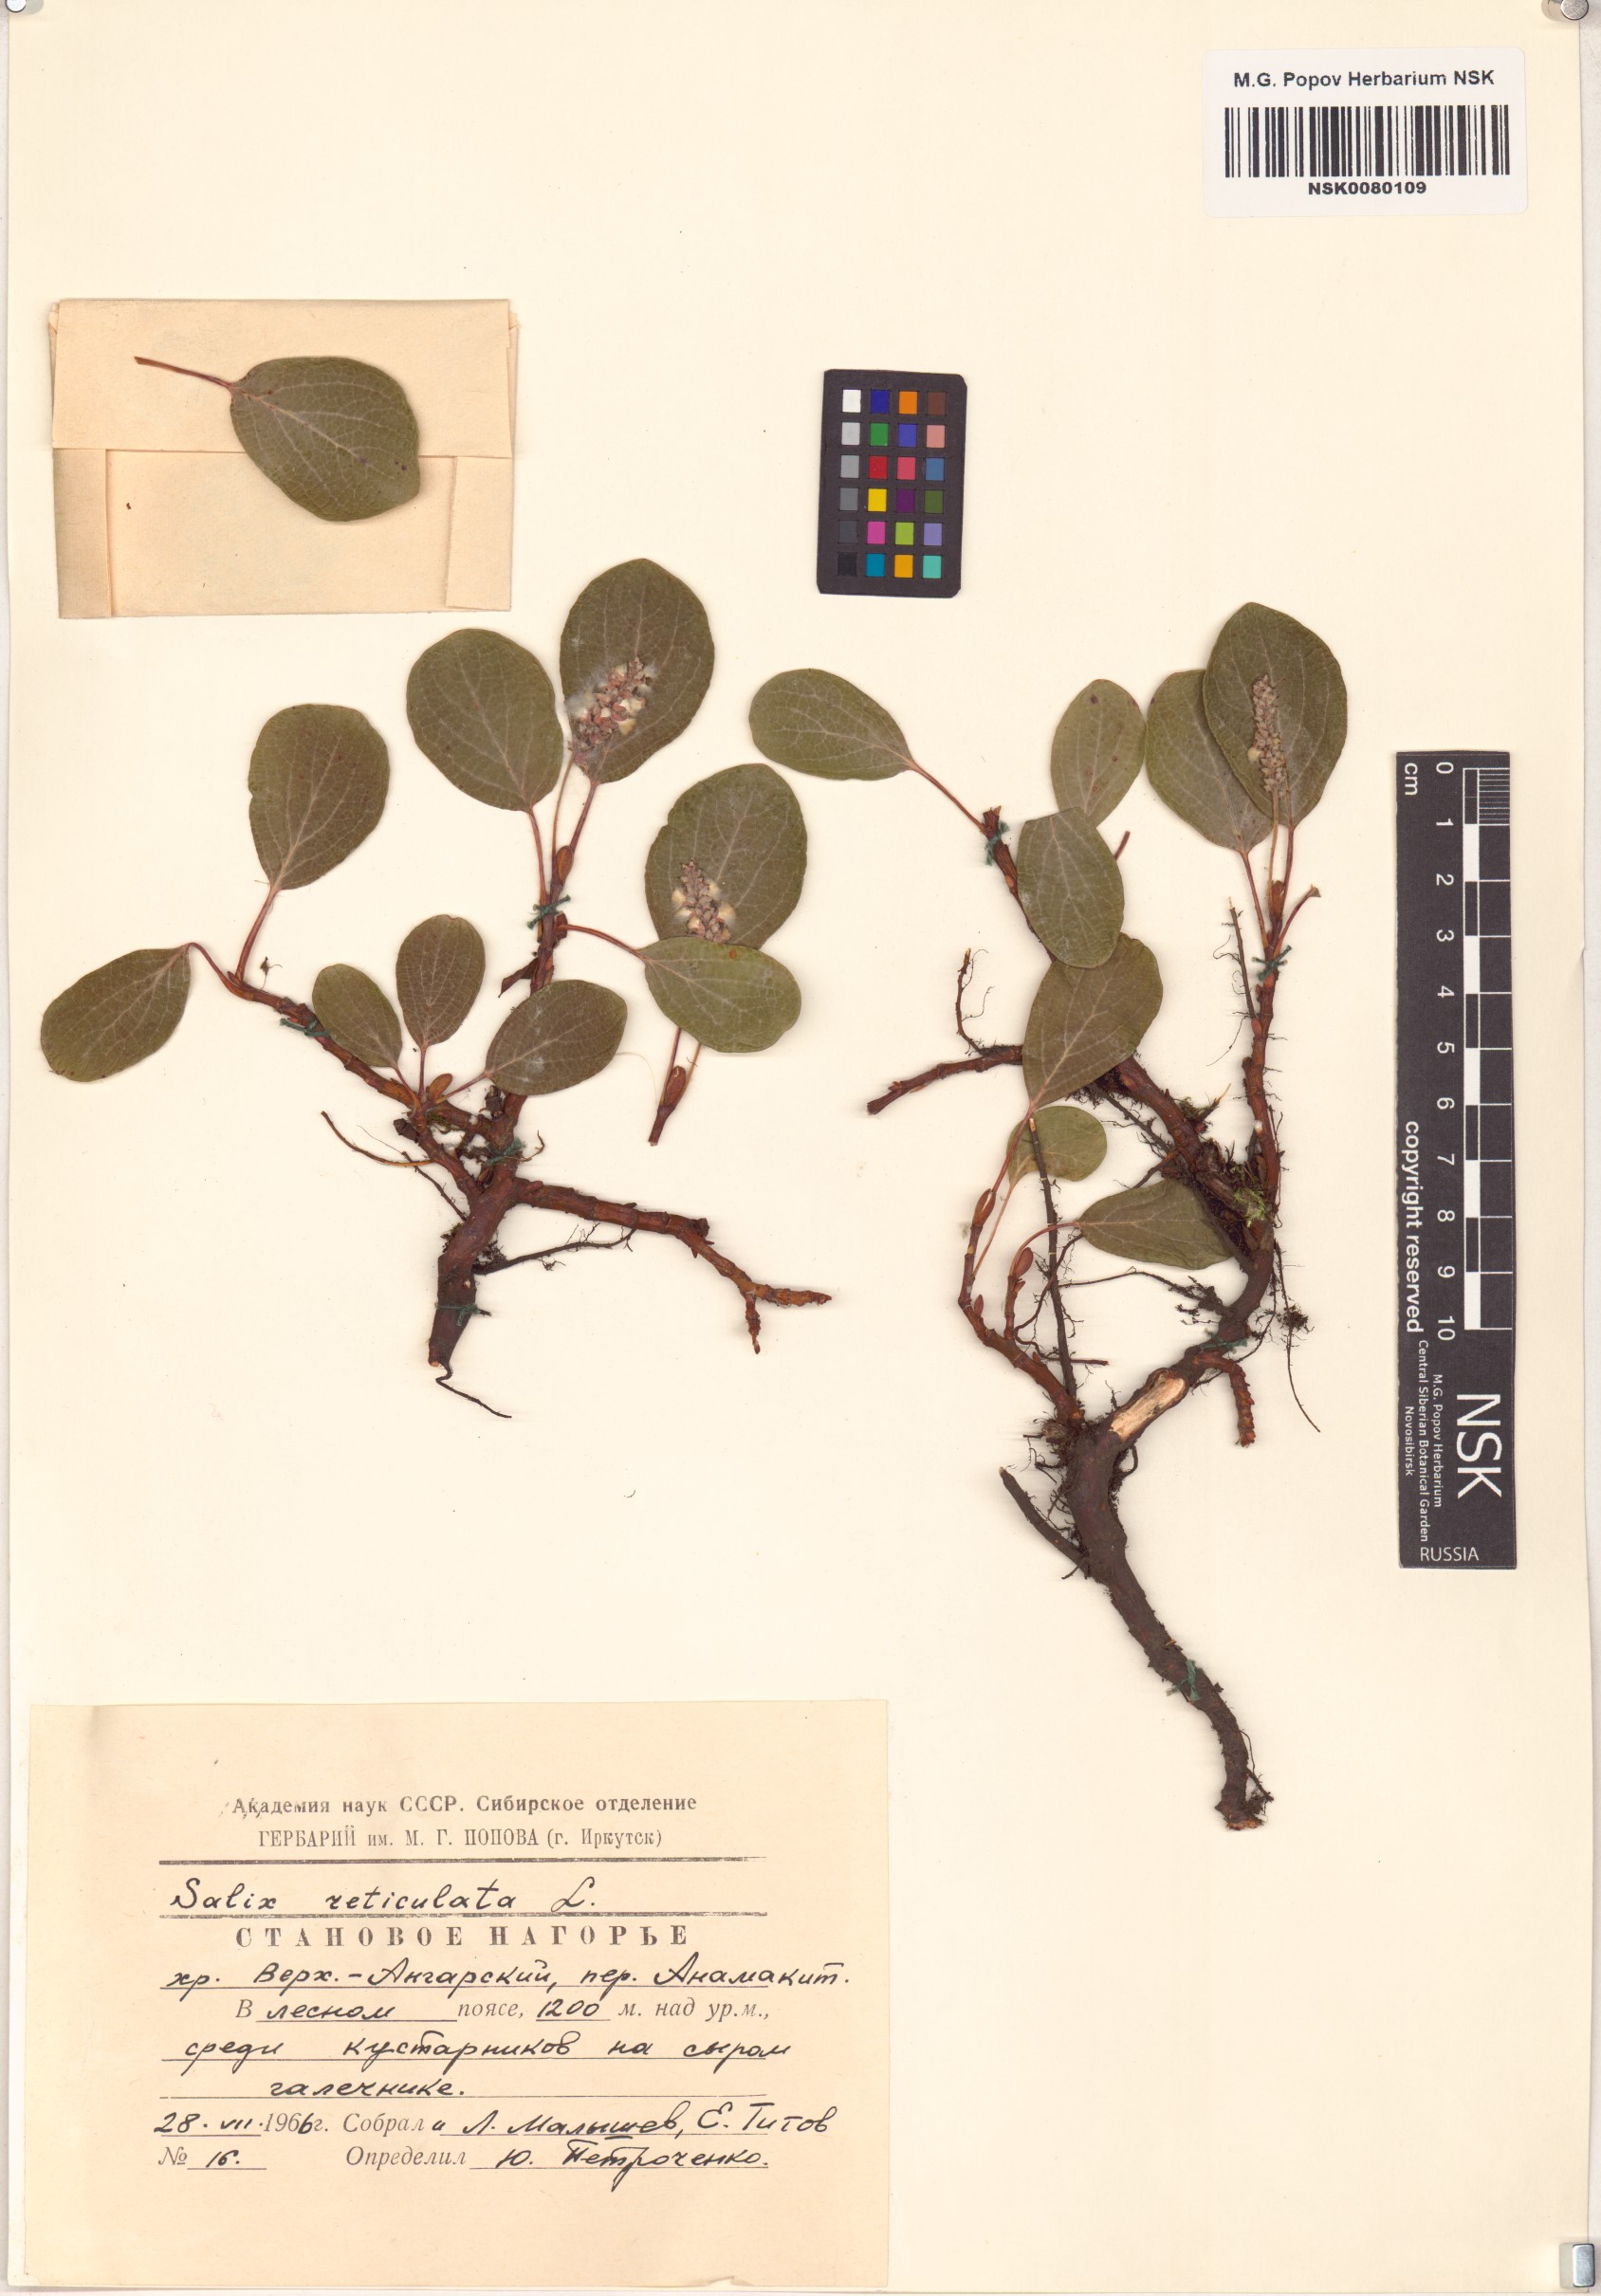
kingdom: Plantae
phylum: Tracheophyta
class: Magnoliopsida
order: Malpighiales
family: Salicaceae
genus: Salix
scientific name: Salix reticulata
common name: Net-leaved willow
